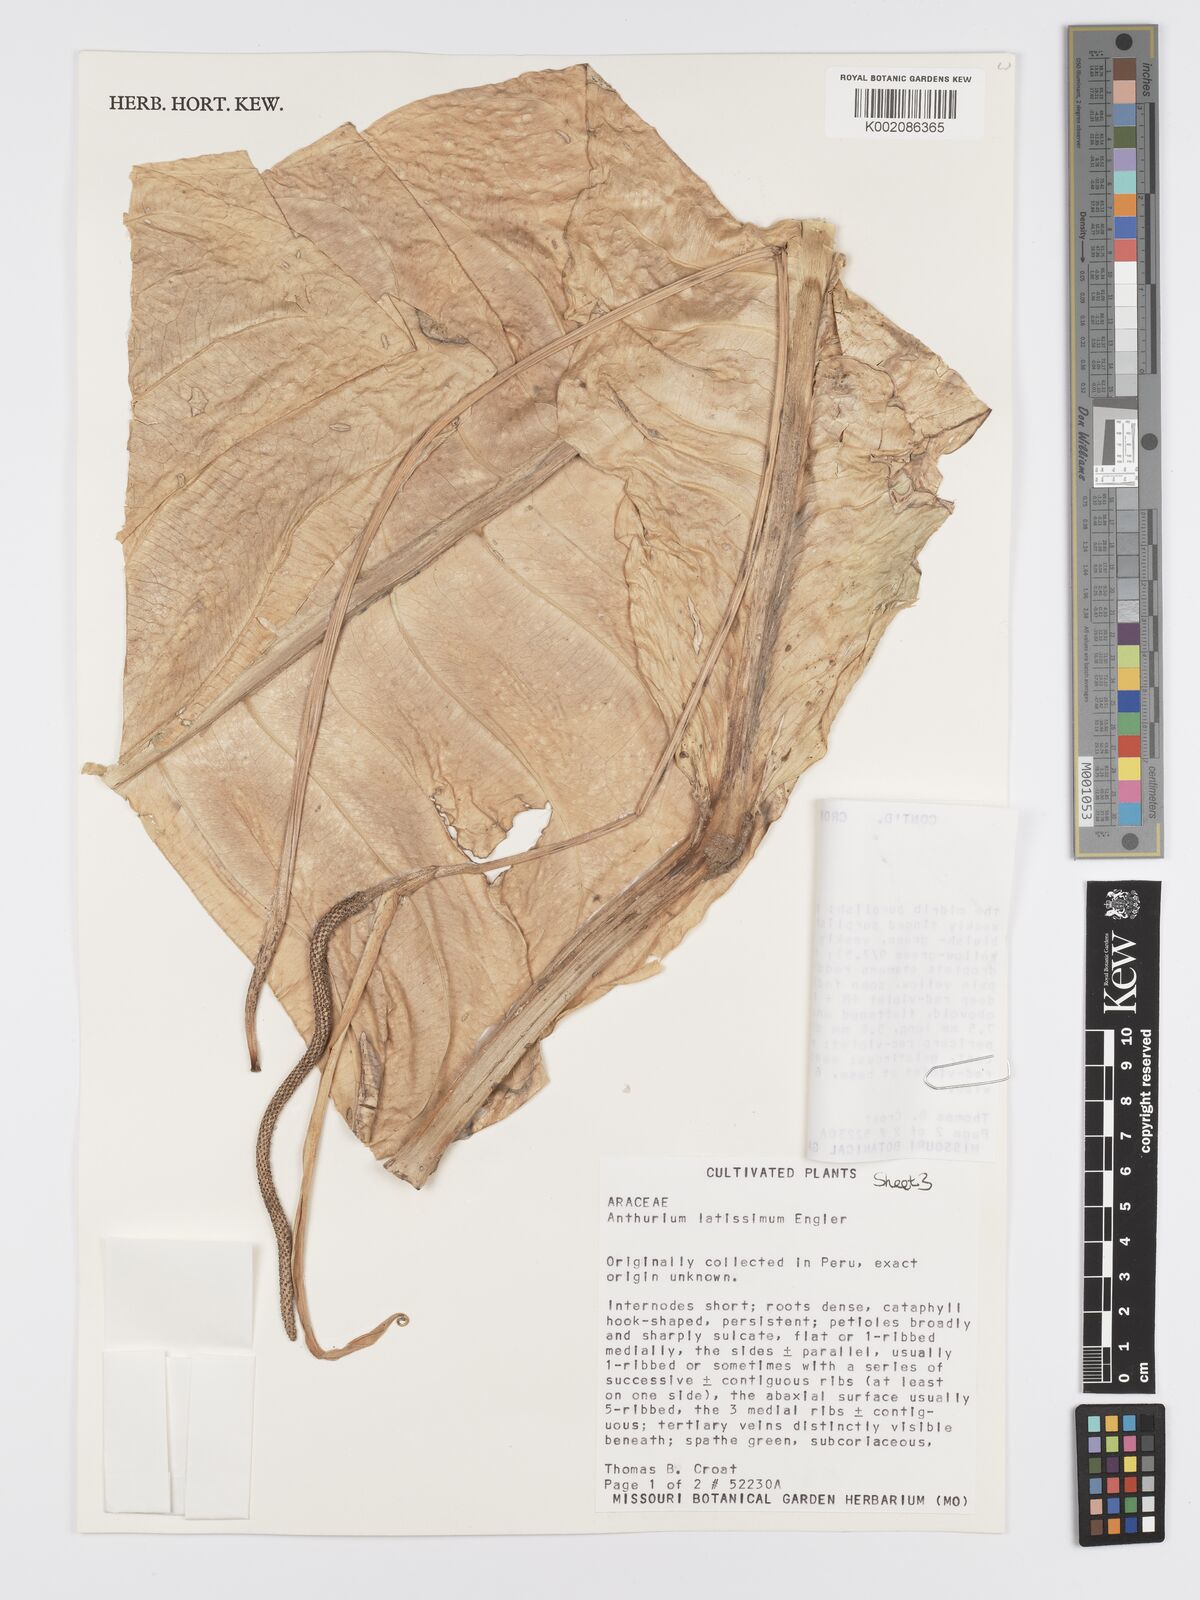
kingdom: Plantae
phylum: Tracheophyta
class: Liliopsida
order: Alismatales
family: Araceae
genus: Anthurium
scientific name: Anthurium latissimum
